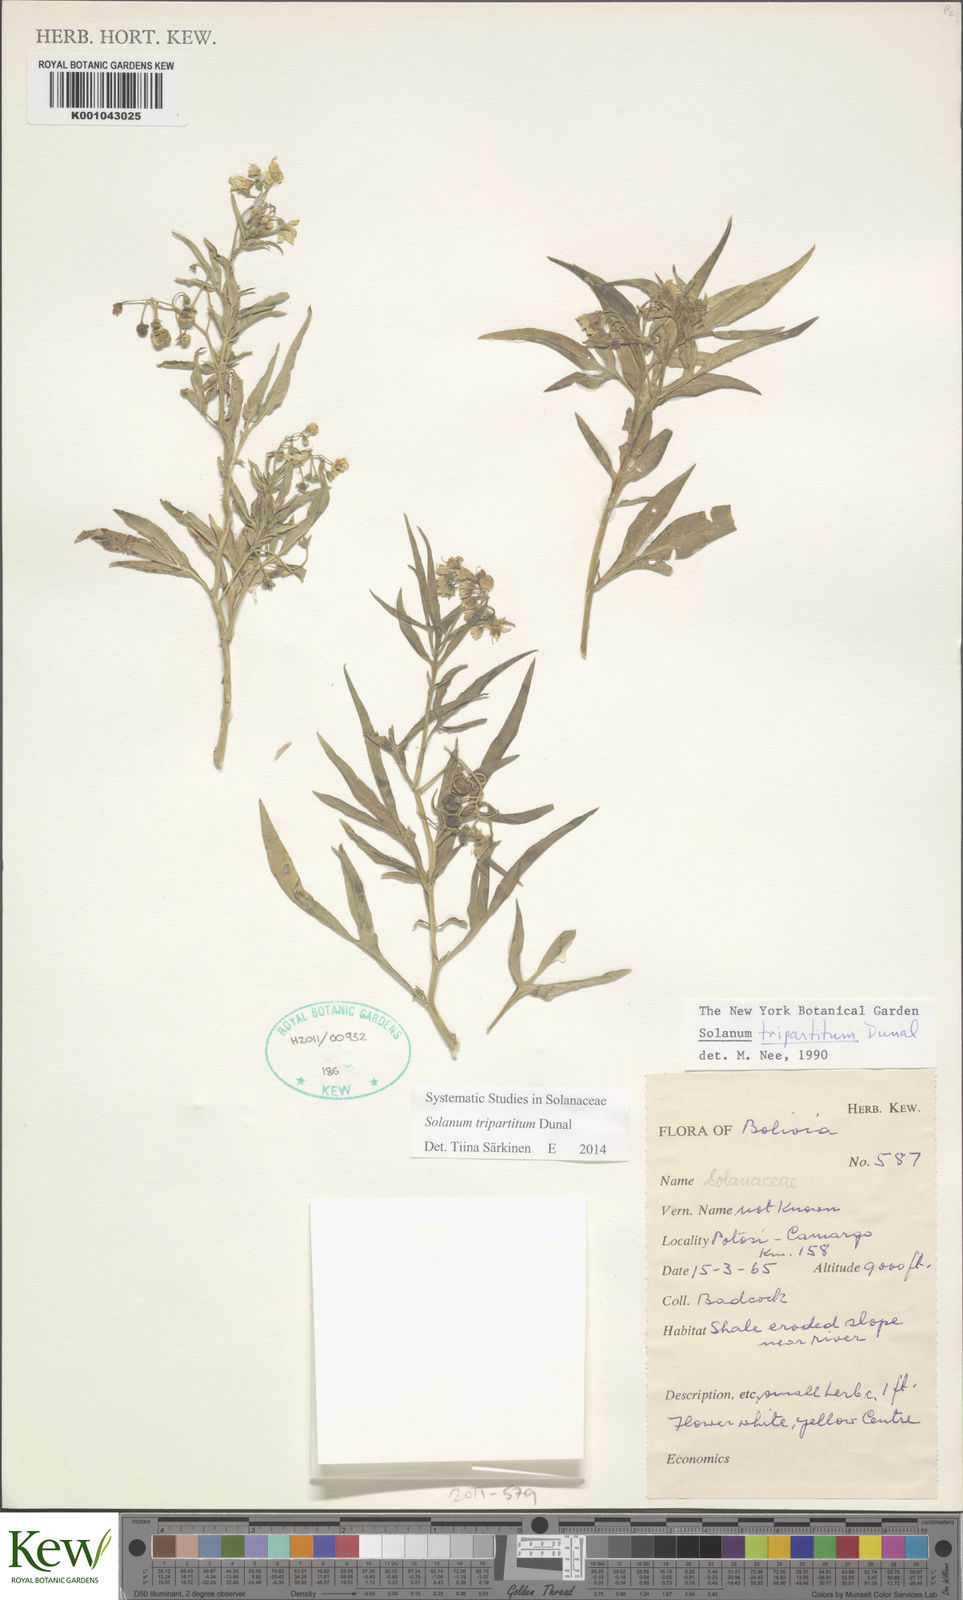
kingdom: Plantae
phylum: Tracheophyta
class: Magnoliopsida
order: Solanales
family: Solanaceae
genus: Solanum
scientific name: Solanum tripartitum
